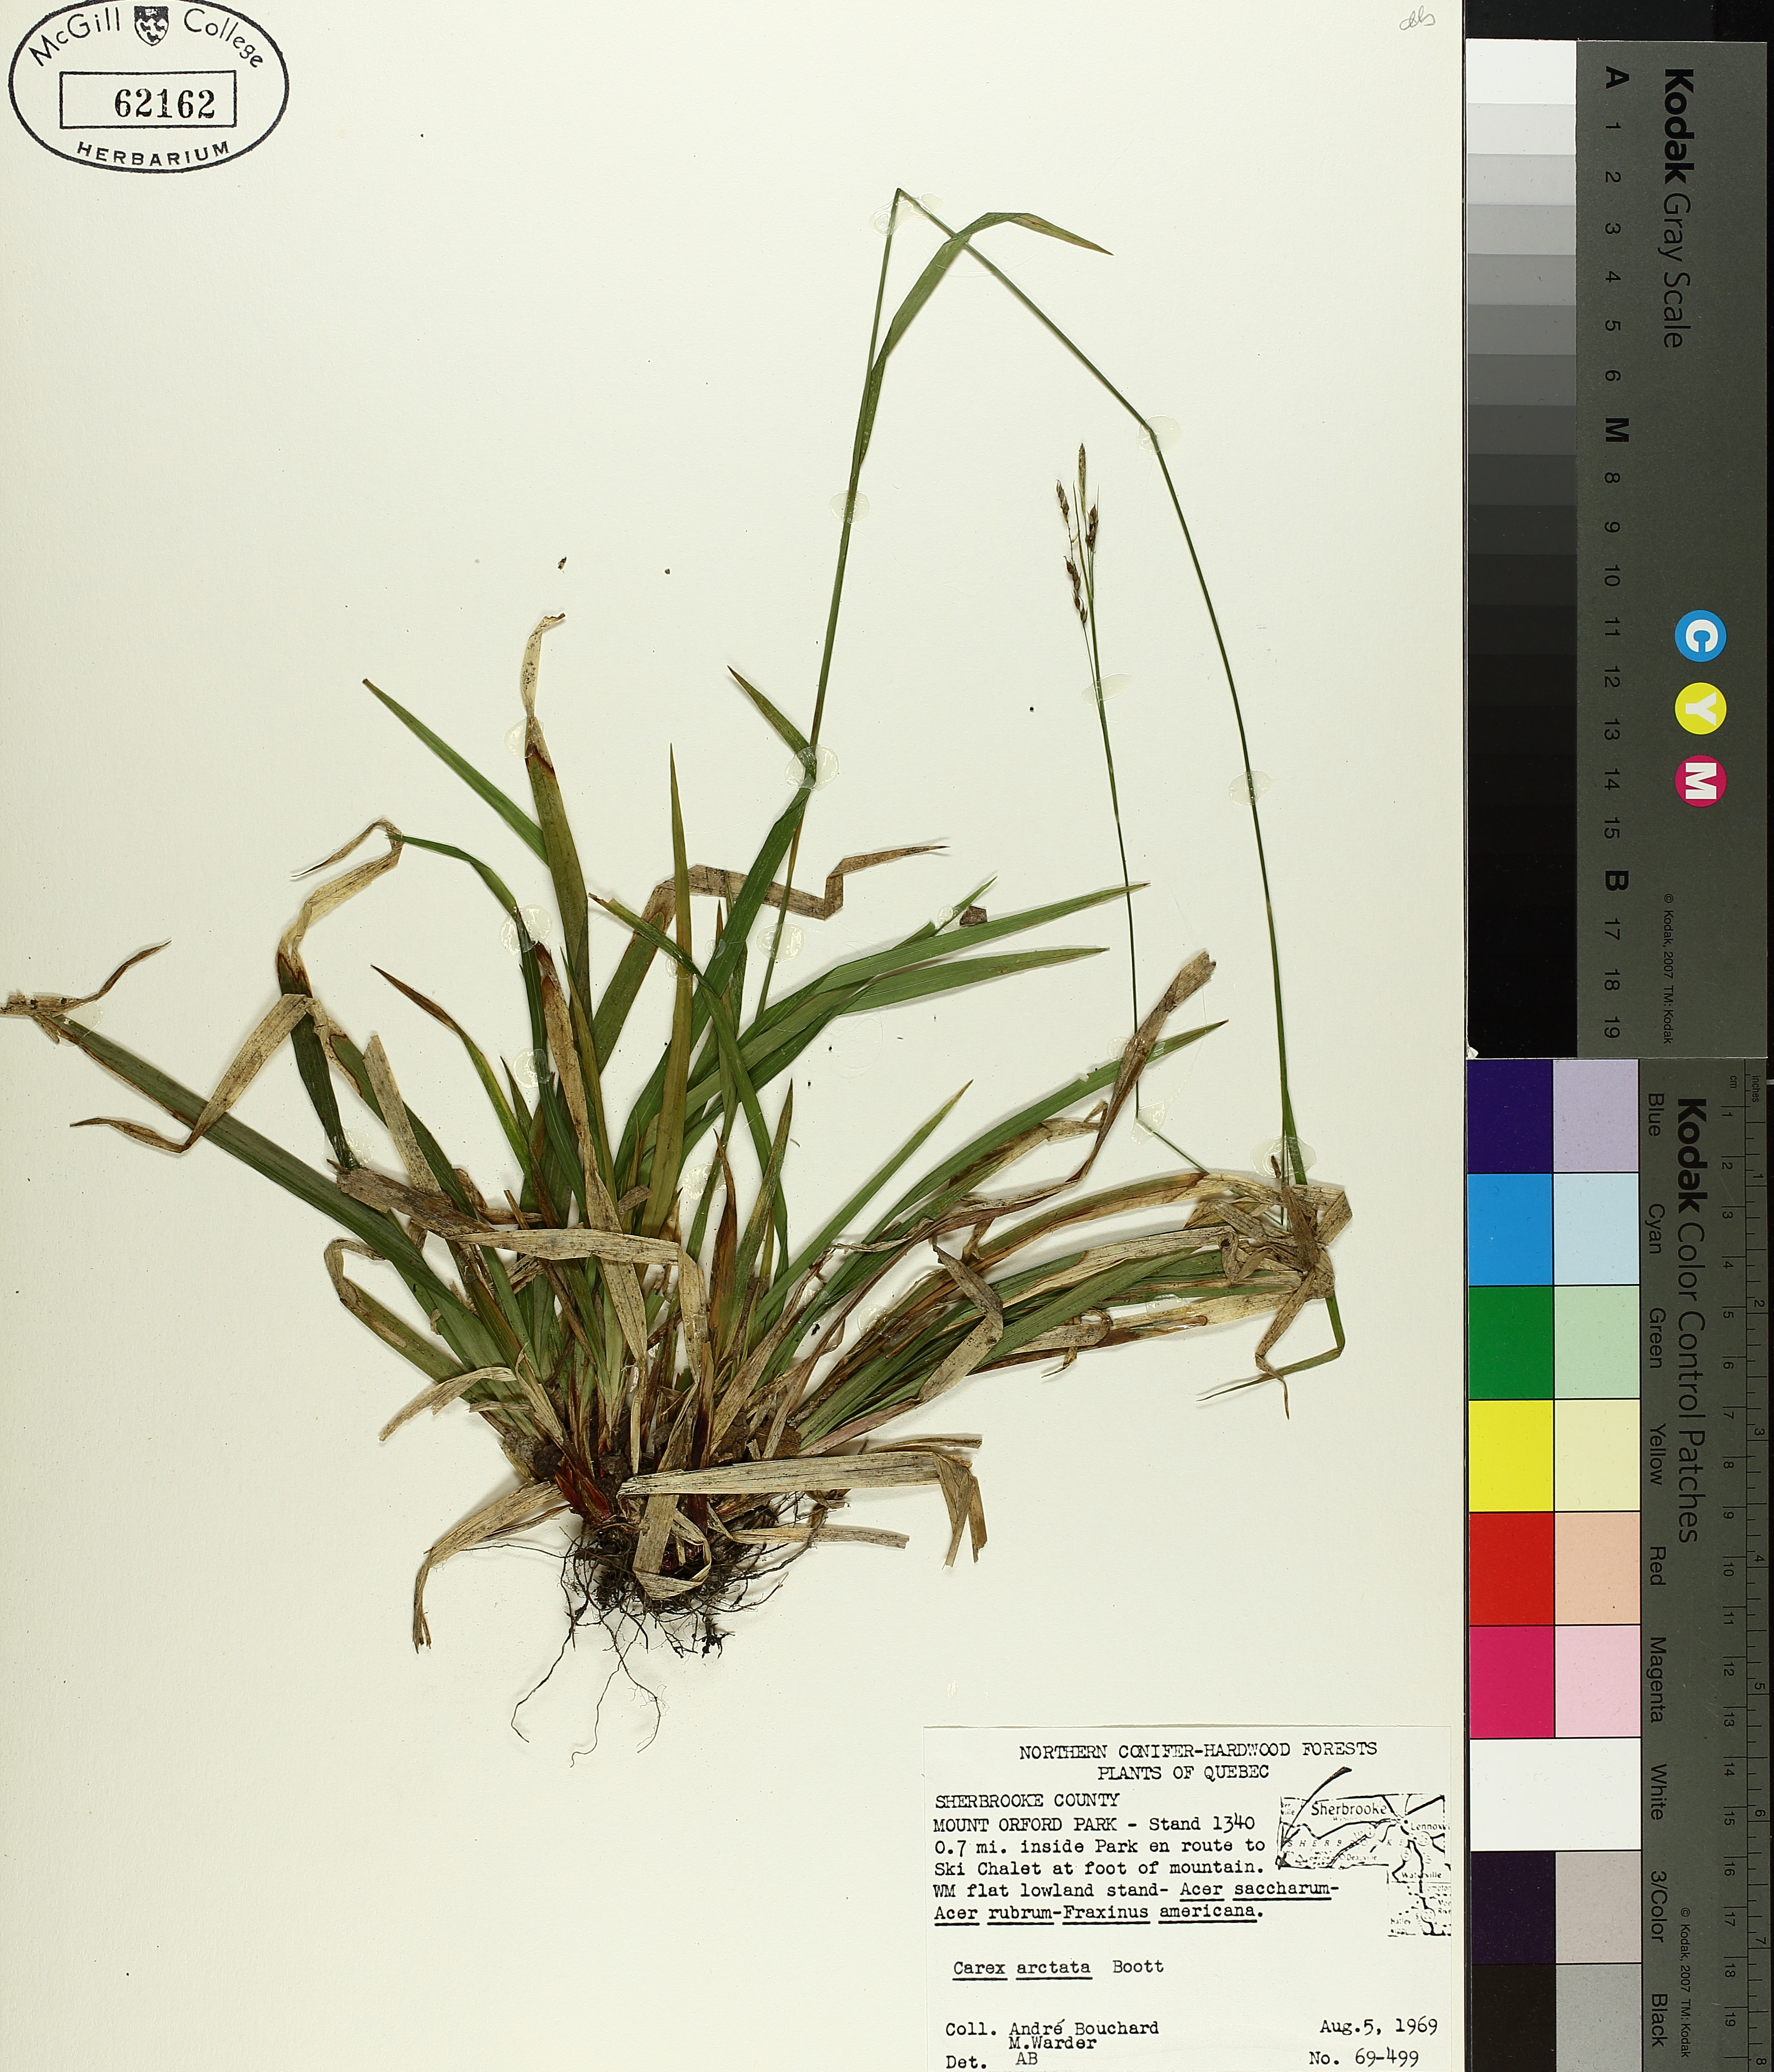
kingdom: Plantae
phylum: Tracheophyta
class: Liliopsida
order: Poales
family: Cyperaceae
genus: Carex
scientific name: Carex arctata
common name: Black sedge
